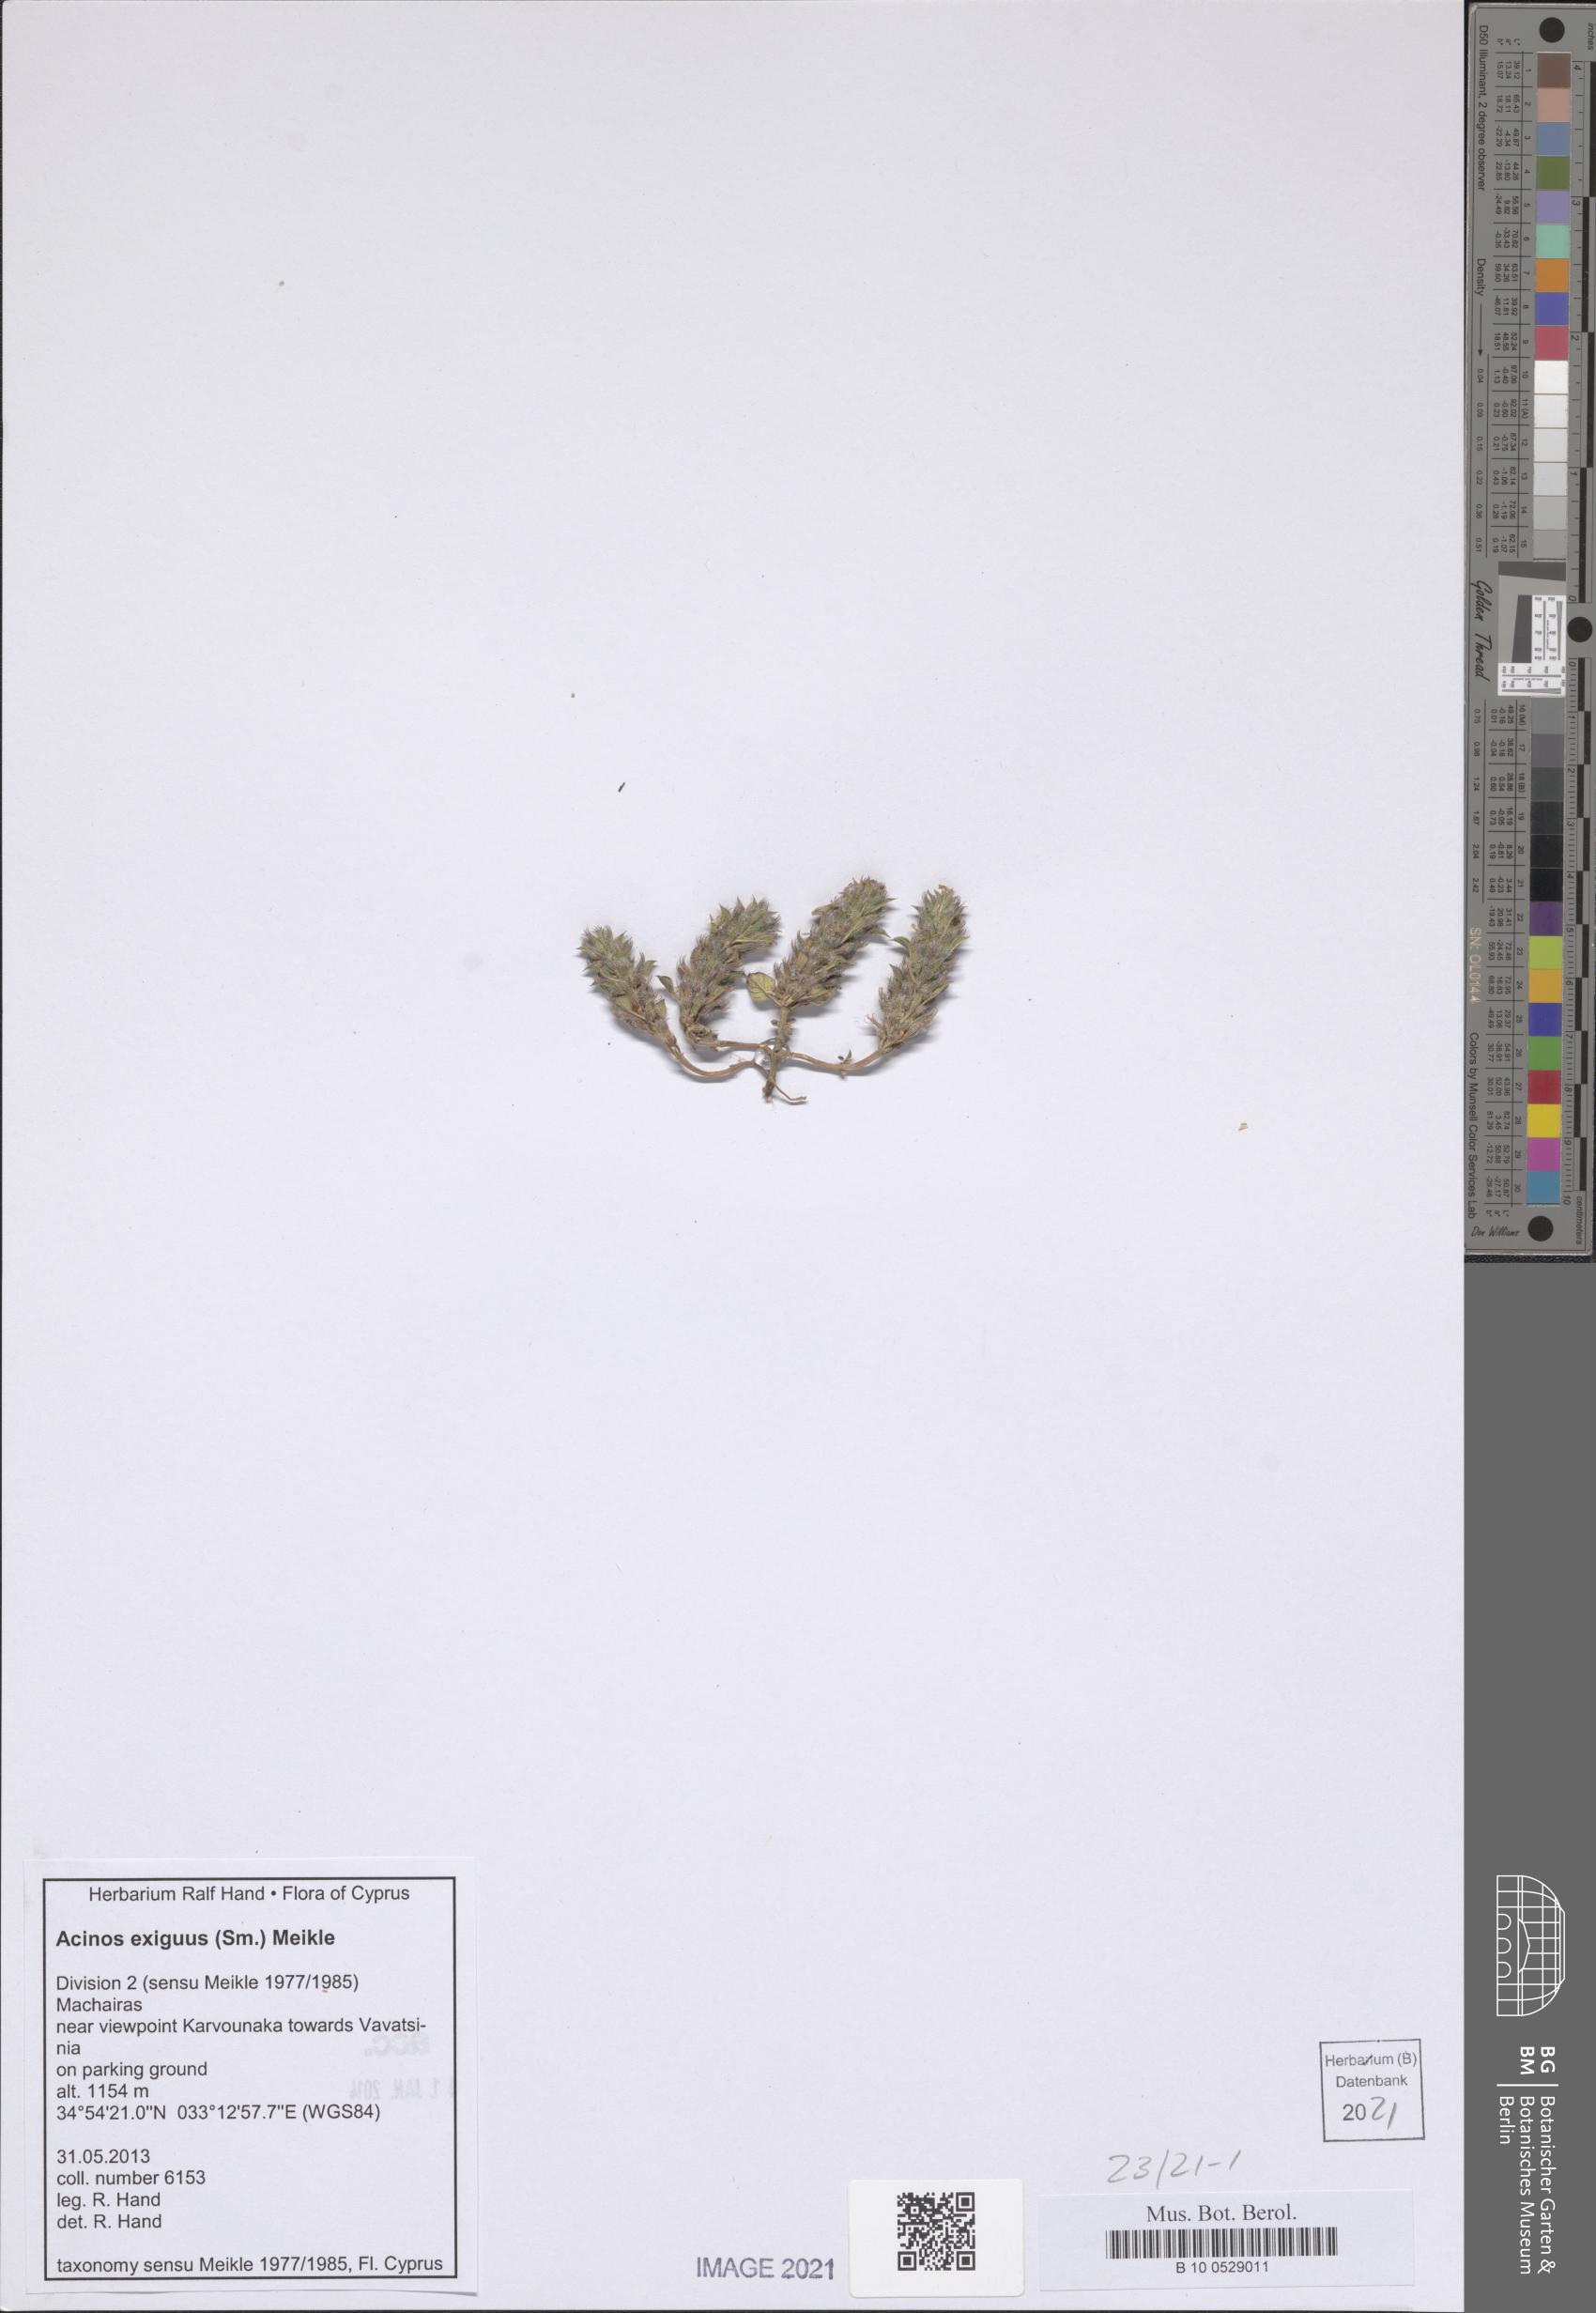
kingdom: Plantae
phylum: Tracheophyta
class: Magnoliopsida
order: Lamiales
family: Lamiaceae
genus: Clinopodium
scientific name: Clinopodium graveolens
